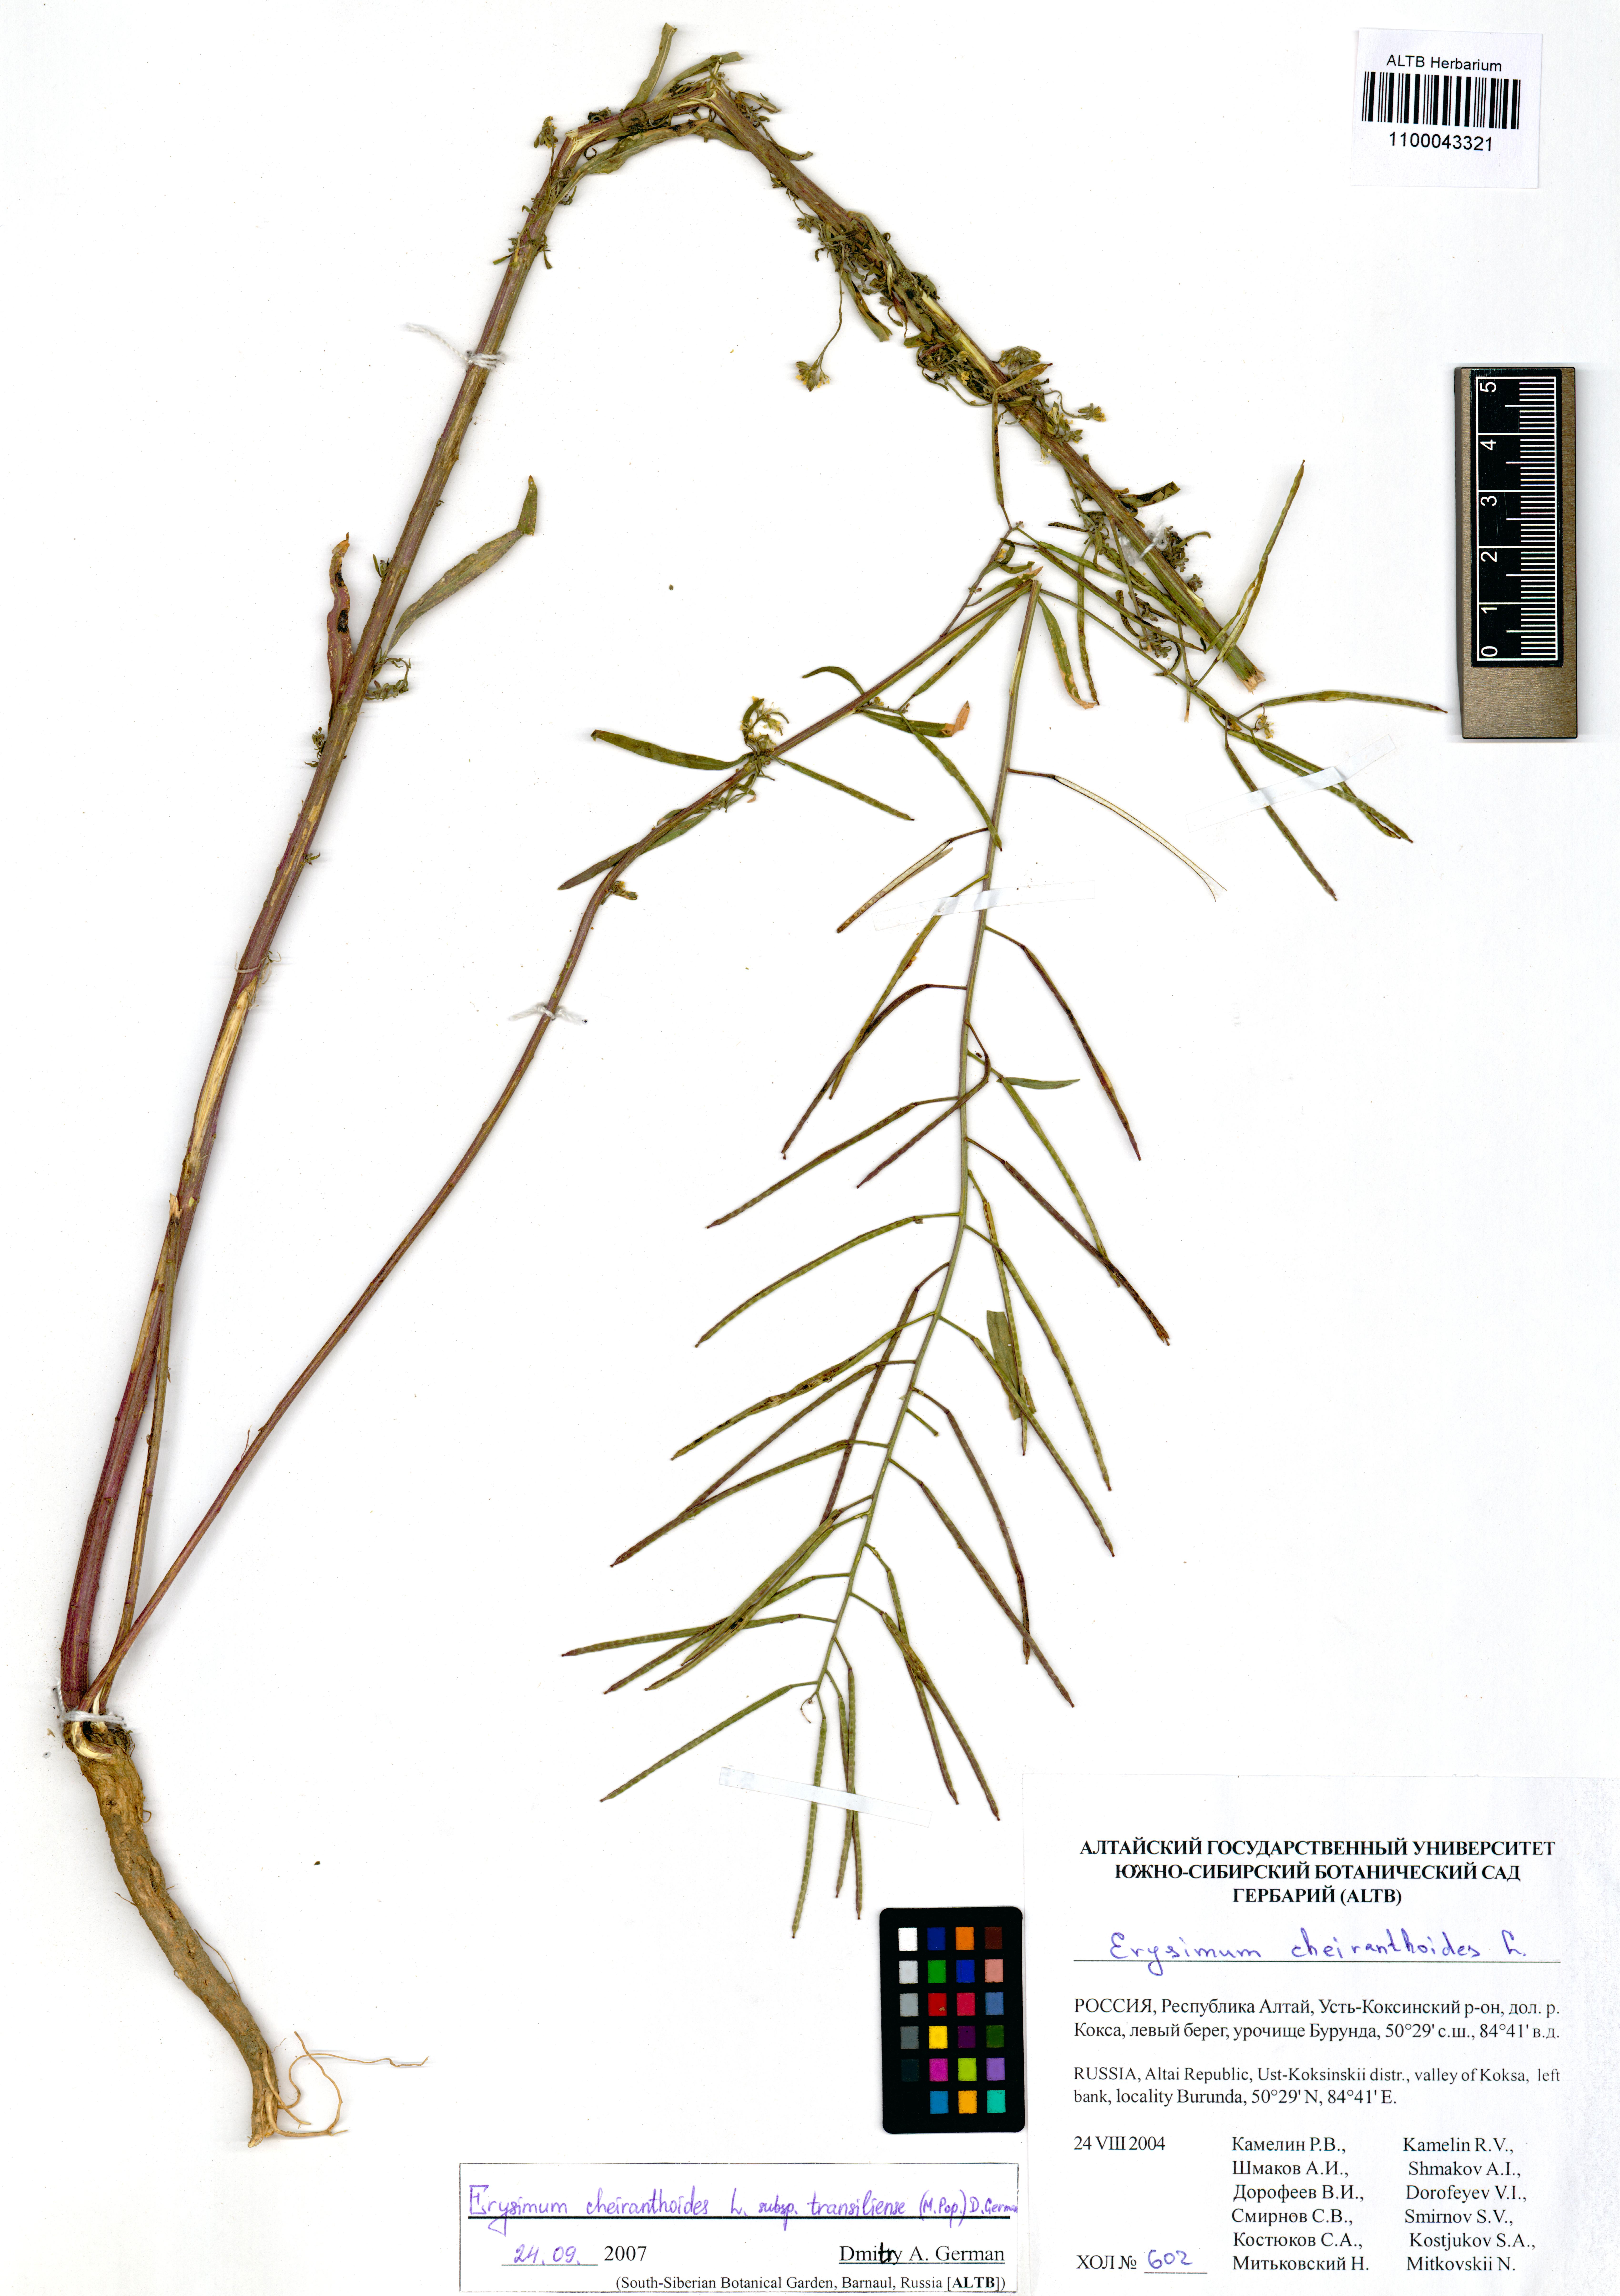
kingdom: Plantae
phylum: Tracheophyta
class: Magnoliopsida
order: Brassicales
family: Brassicaceae
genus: Erysimum
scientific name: Erysimum virgatum
